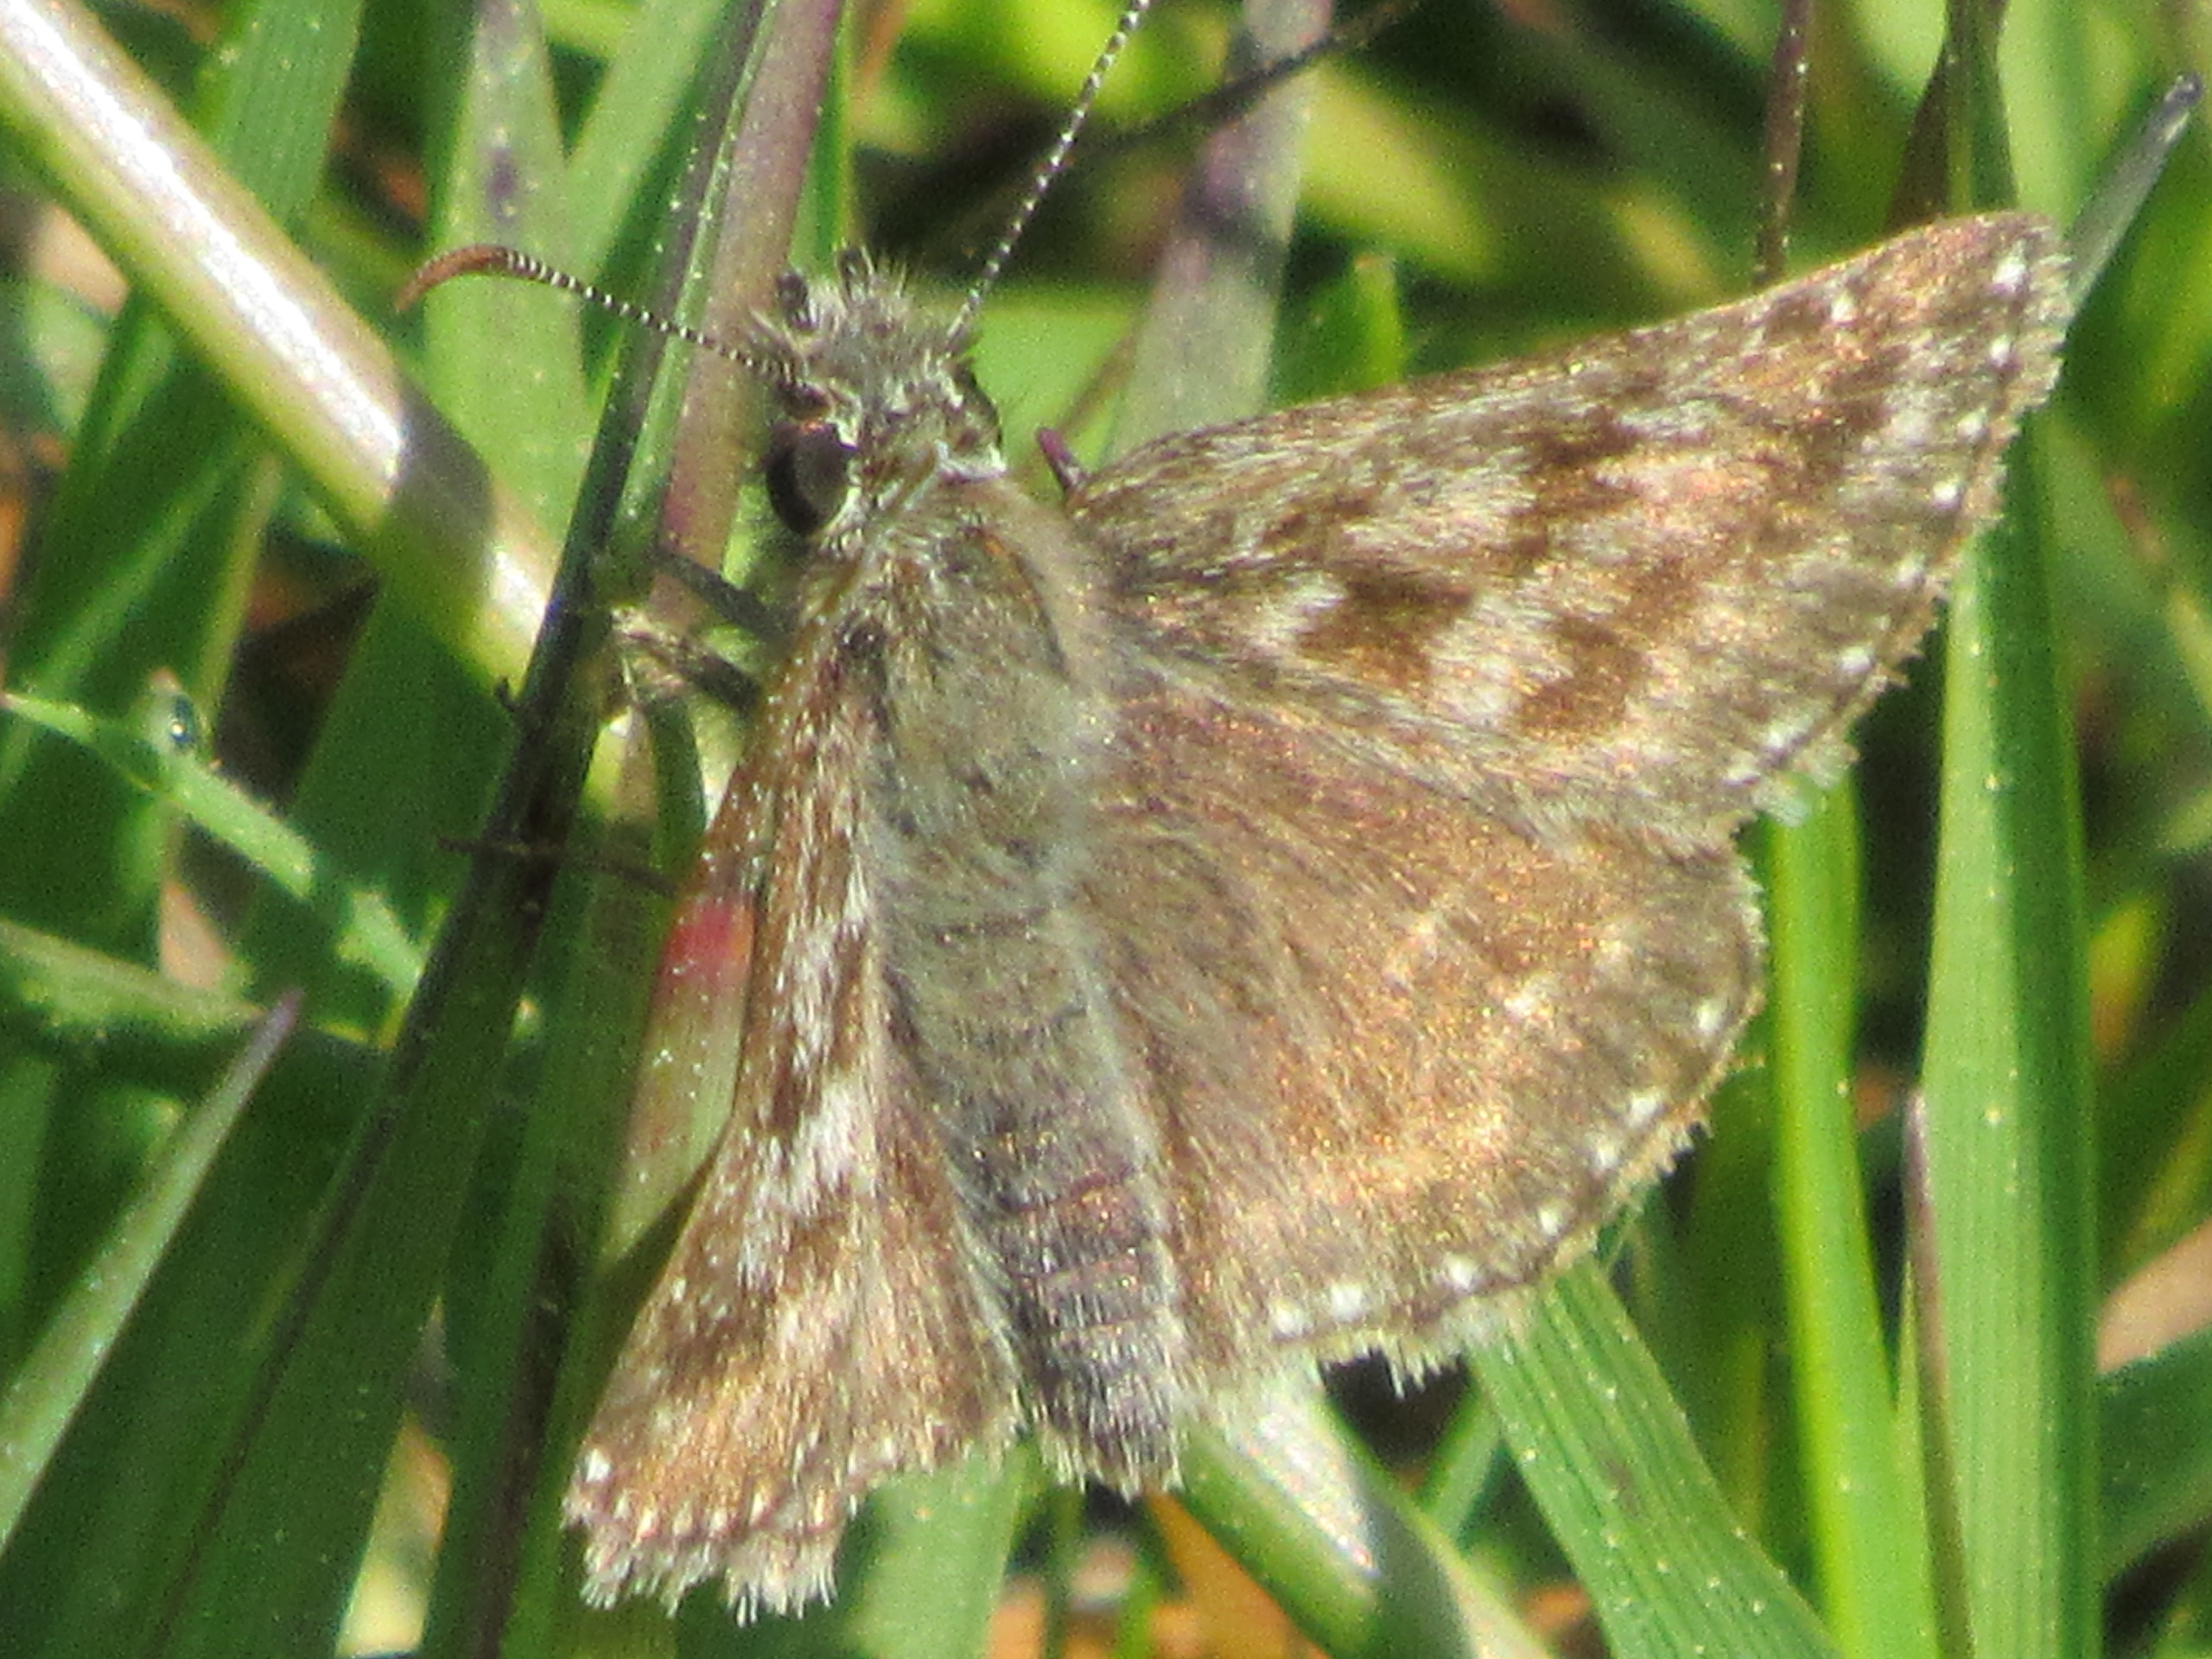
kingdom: Animalia
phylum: Arthropoda
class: Insecta
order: Lepidoptera
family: Hesperiidae
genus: Erynnis
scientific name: Erynnis tages
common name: Gråbåndet bredpande
